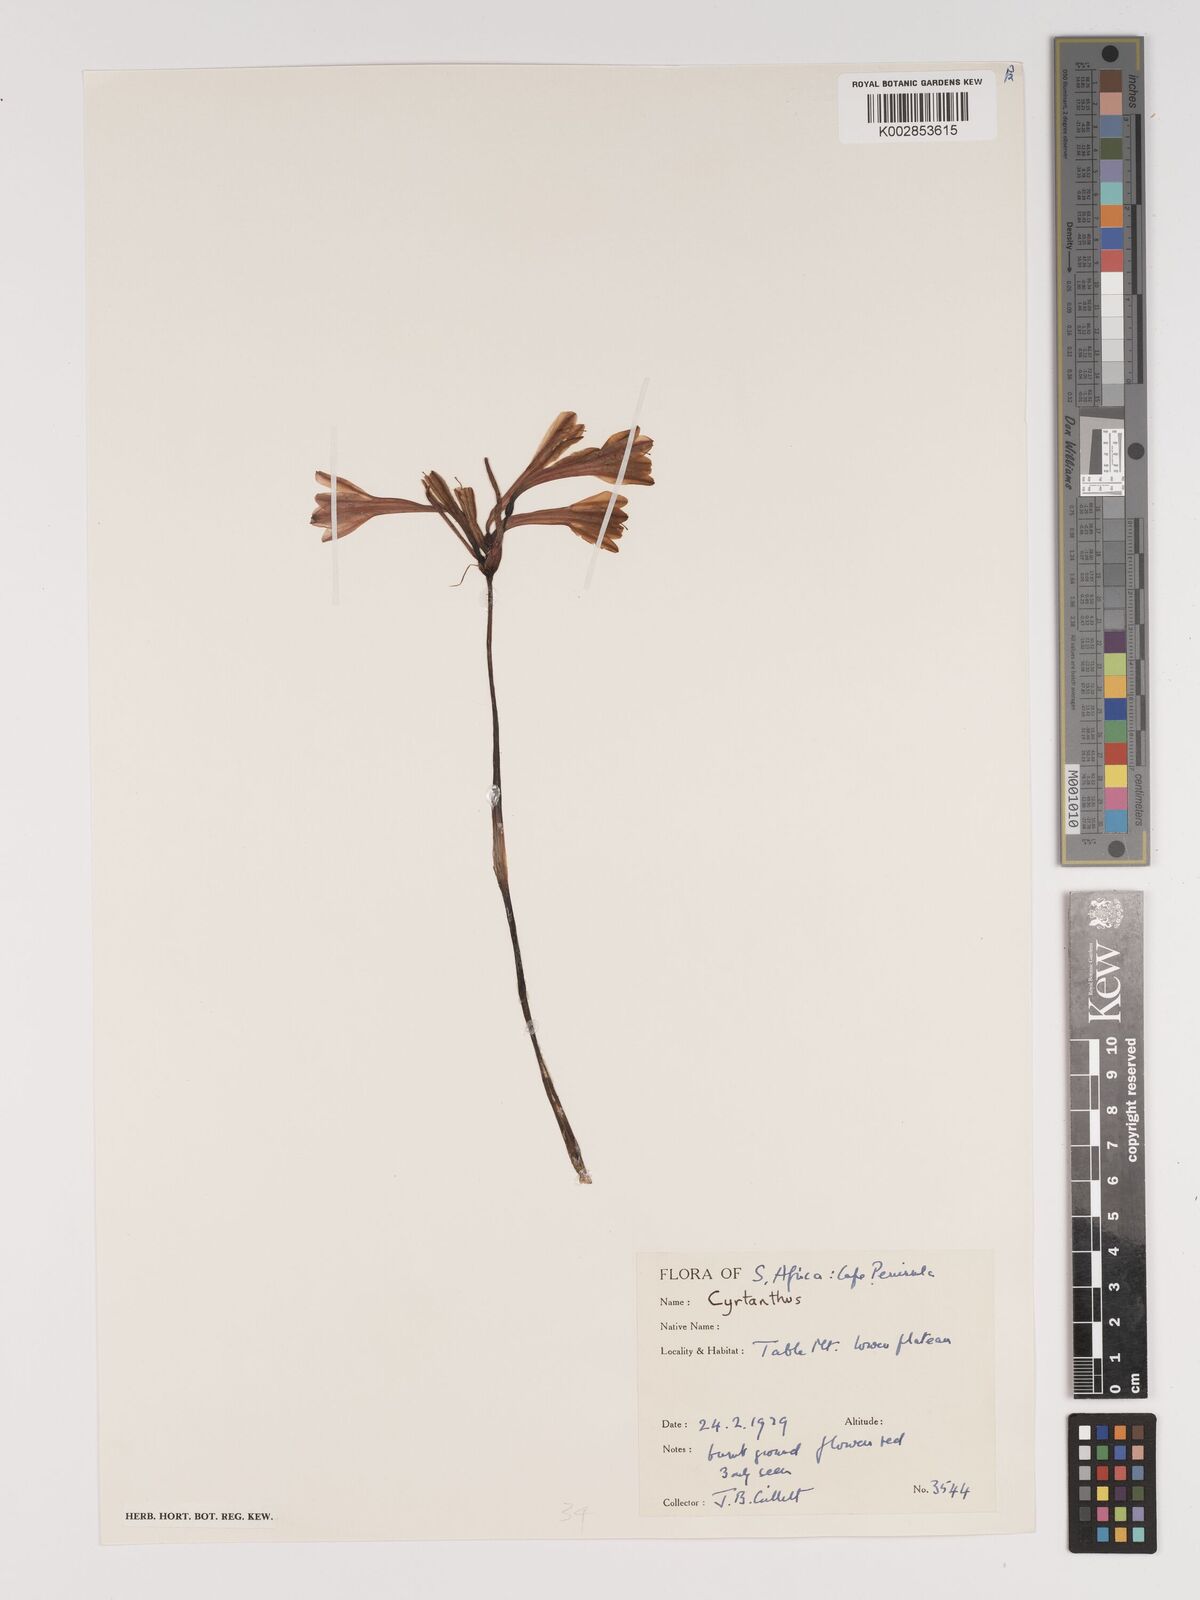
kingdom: Plantae
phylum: Tracheophyta
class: Liliopsida
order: Asparagales
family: Amaryllidaceae
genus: Cyrtanthus
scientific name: Cyrtanthus
